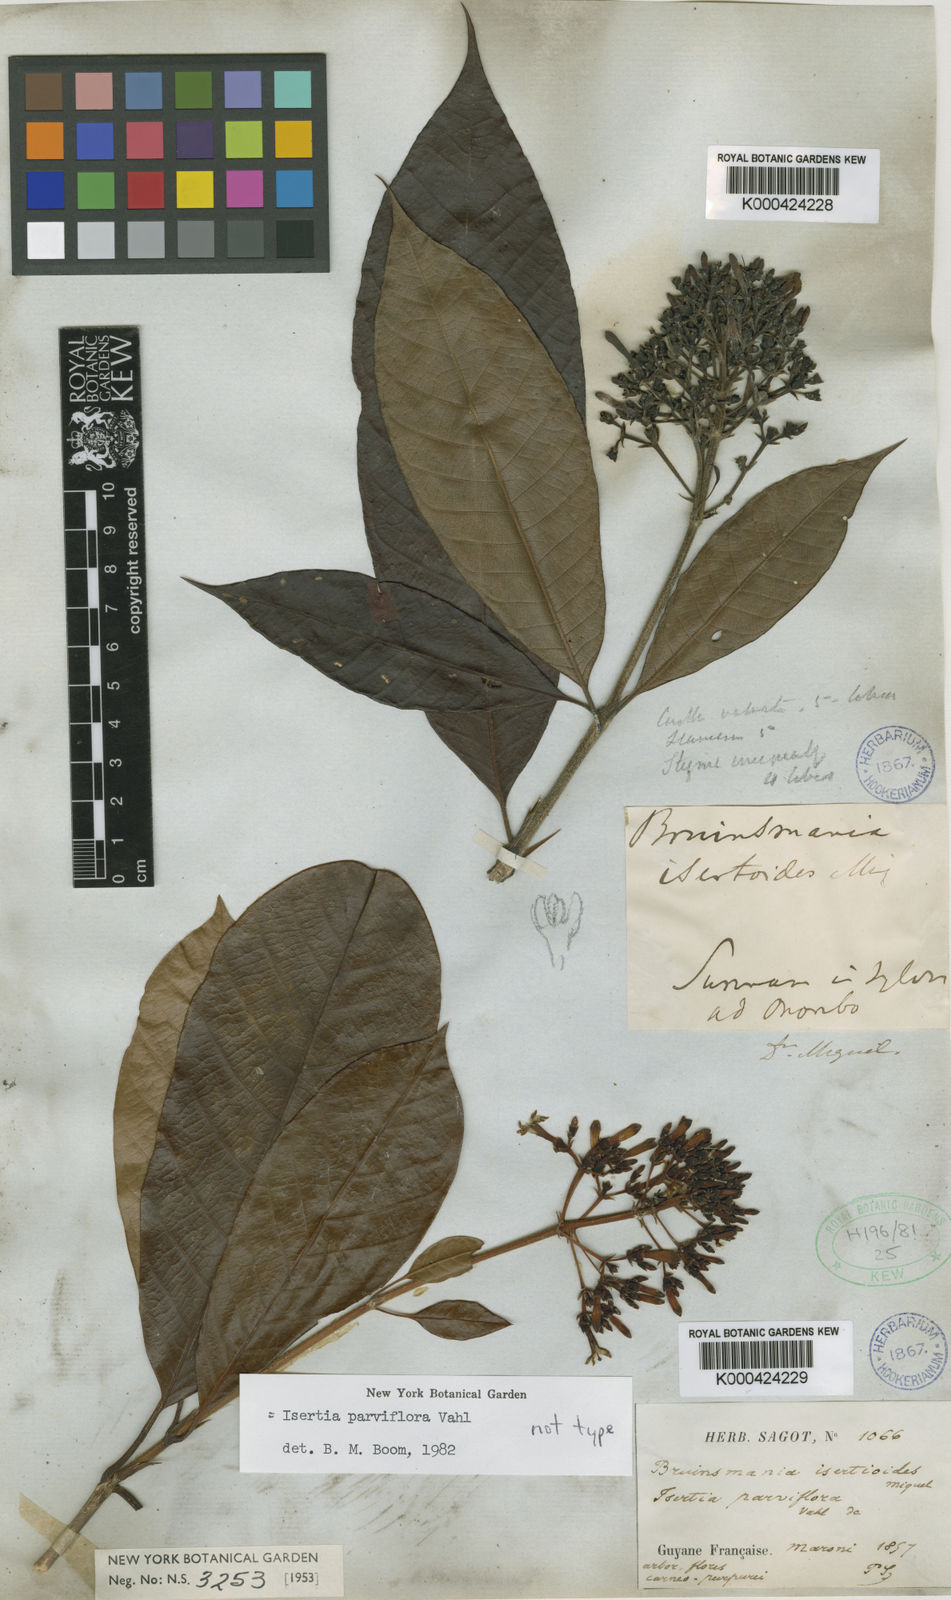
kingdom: Plantae
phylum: Tracheophyta
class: Magnoliopsida
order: Gentianales
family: Rubiaceae
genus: Isertia
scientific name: Isertia parviflora
